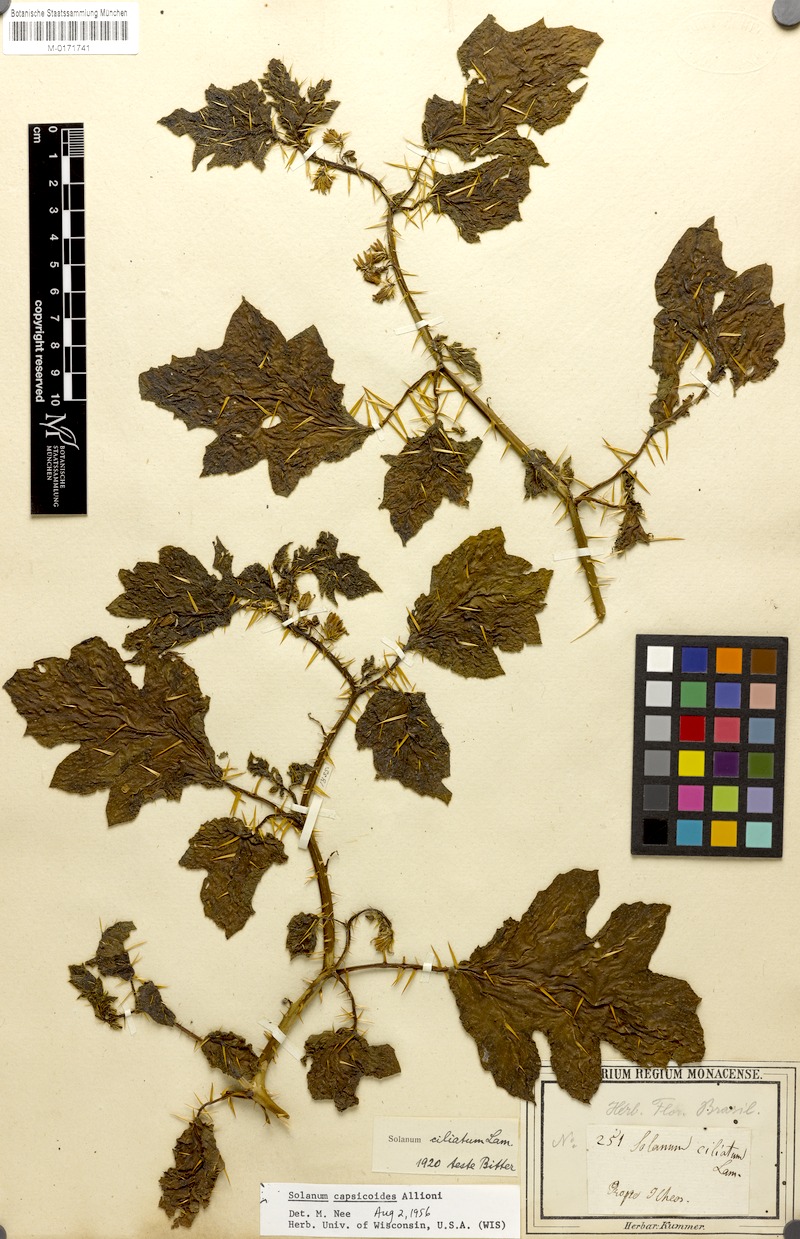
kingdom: Plantae
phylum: Tracheophyta
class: Magnoliopsida
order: Solanales
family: Solanaceae
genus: Solanum
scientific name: Solanum capsicoides
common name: Cockroach berry
